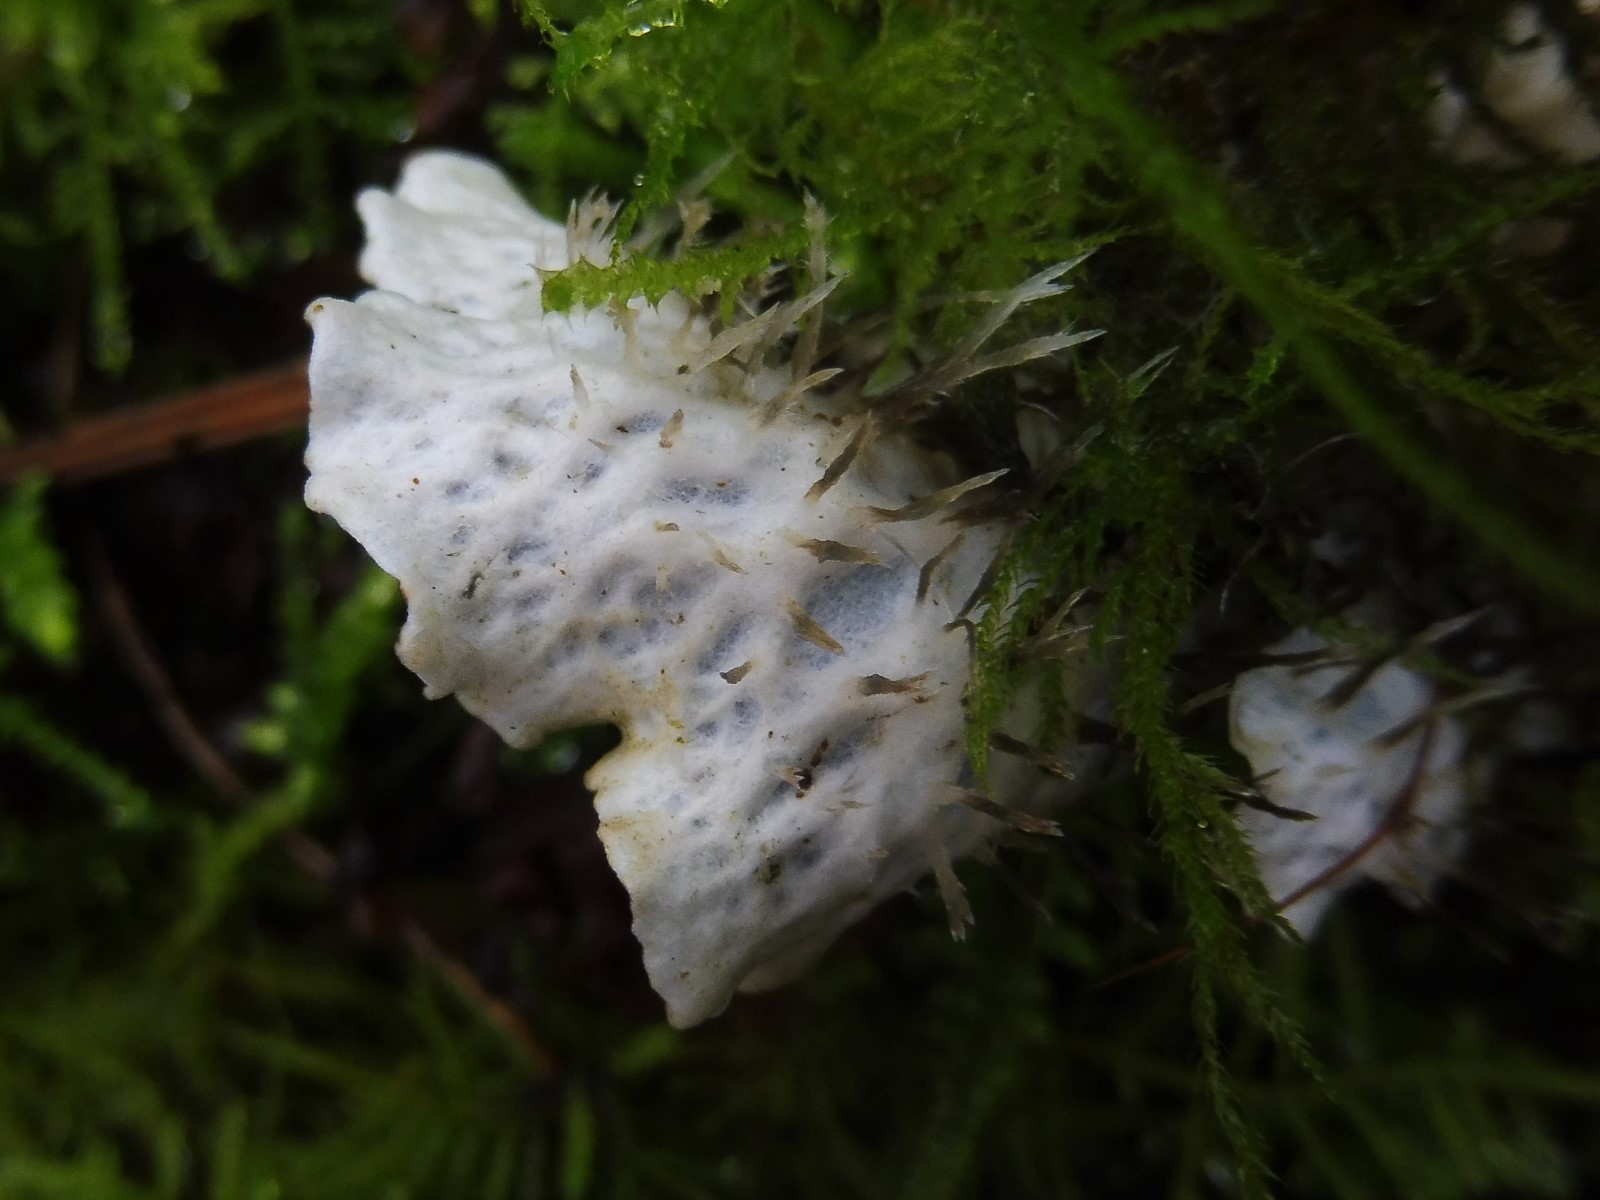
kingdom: Fungi
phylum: Ascomycota
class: Lecanoromycetes
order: Peltigerales
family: Peltigeraceae
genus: Peltigera
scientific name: Peltigera hymenina
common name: hinde-skjoldlav
